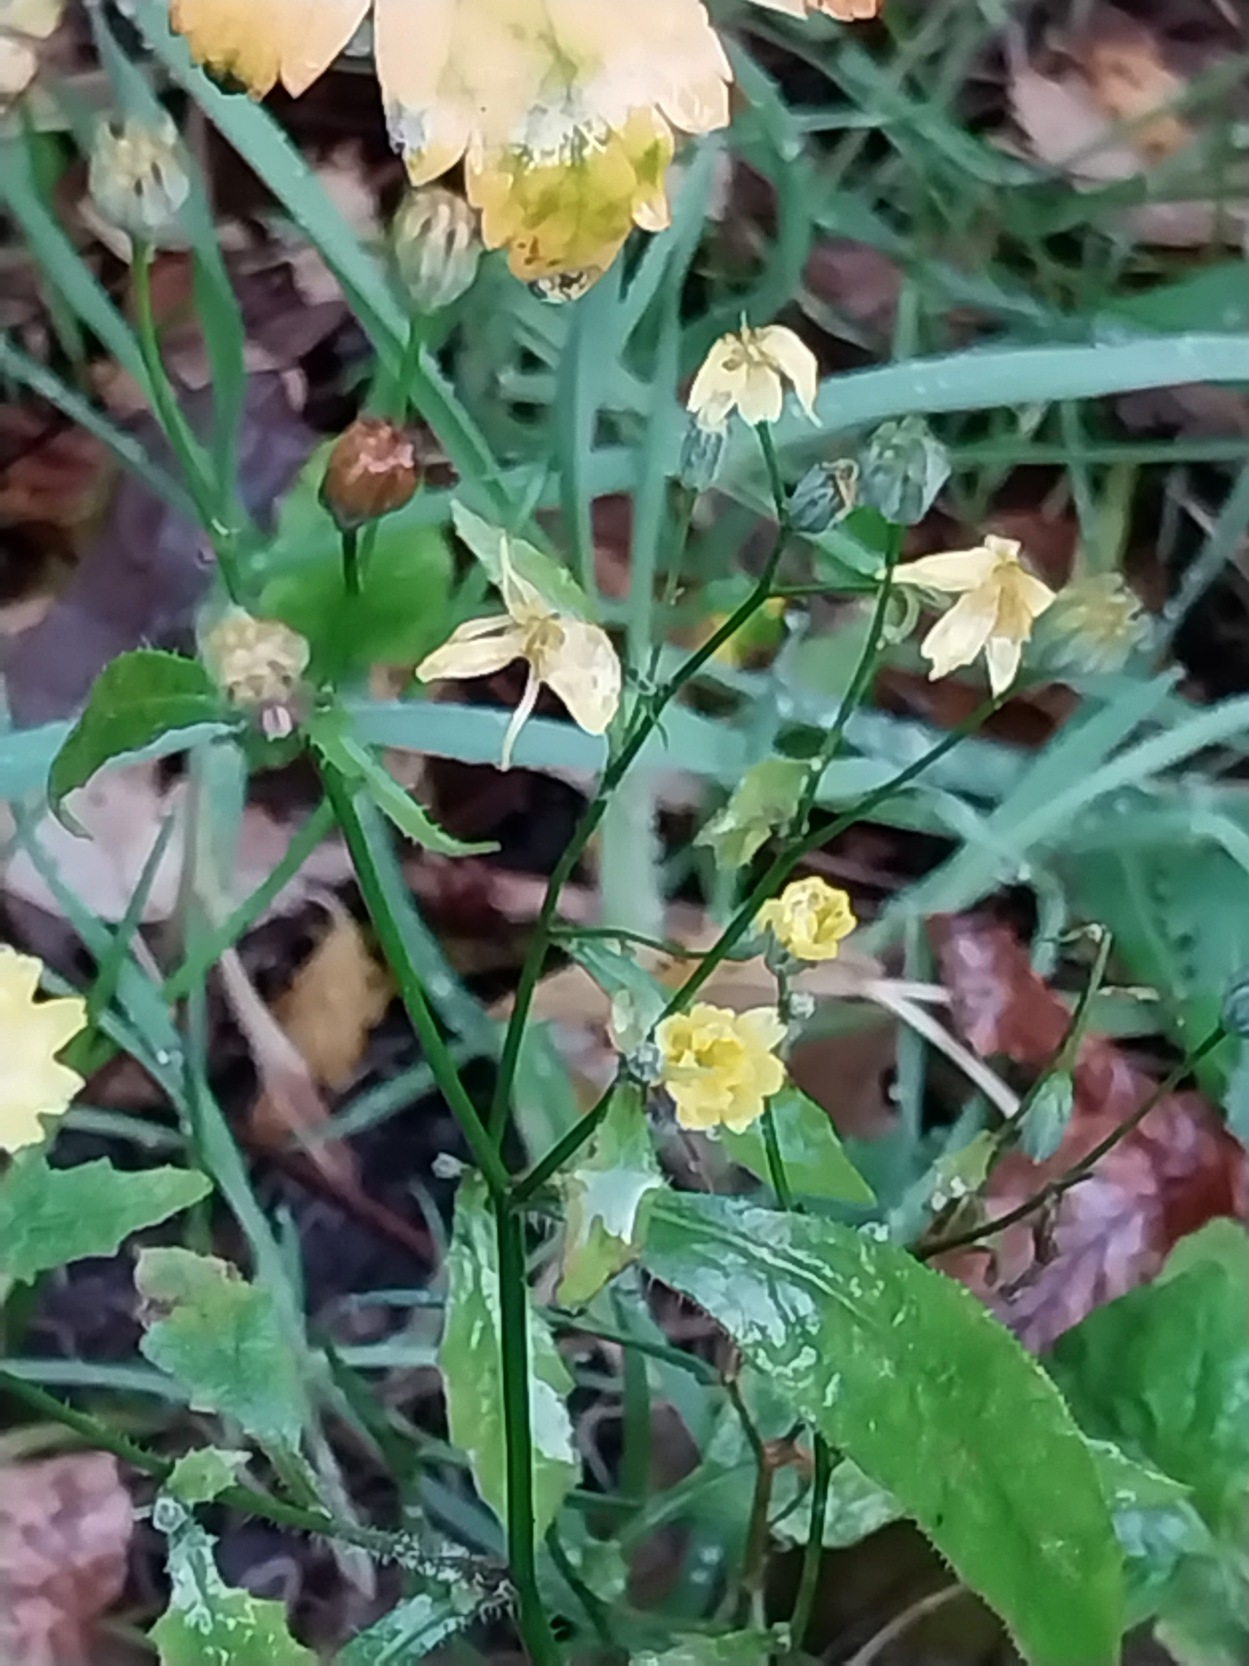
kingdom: Plantae
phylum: Tracheophyta
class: Magnoliopsida
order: Asterales
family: Asteraceae
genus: Lapsana
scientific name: Lapsana communis
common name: Haremad
